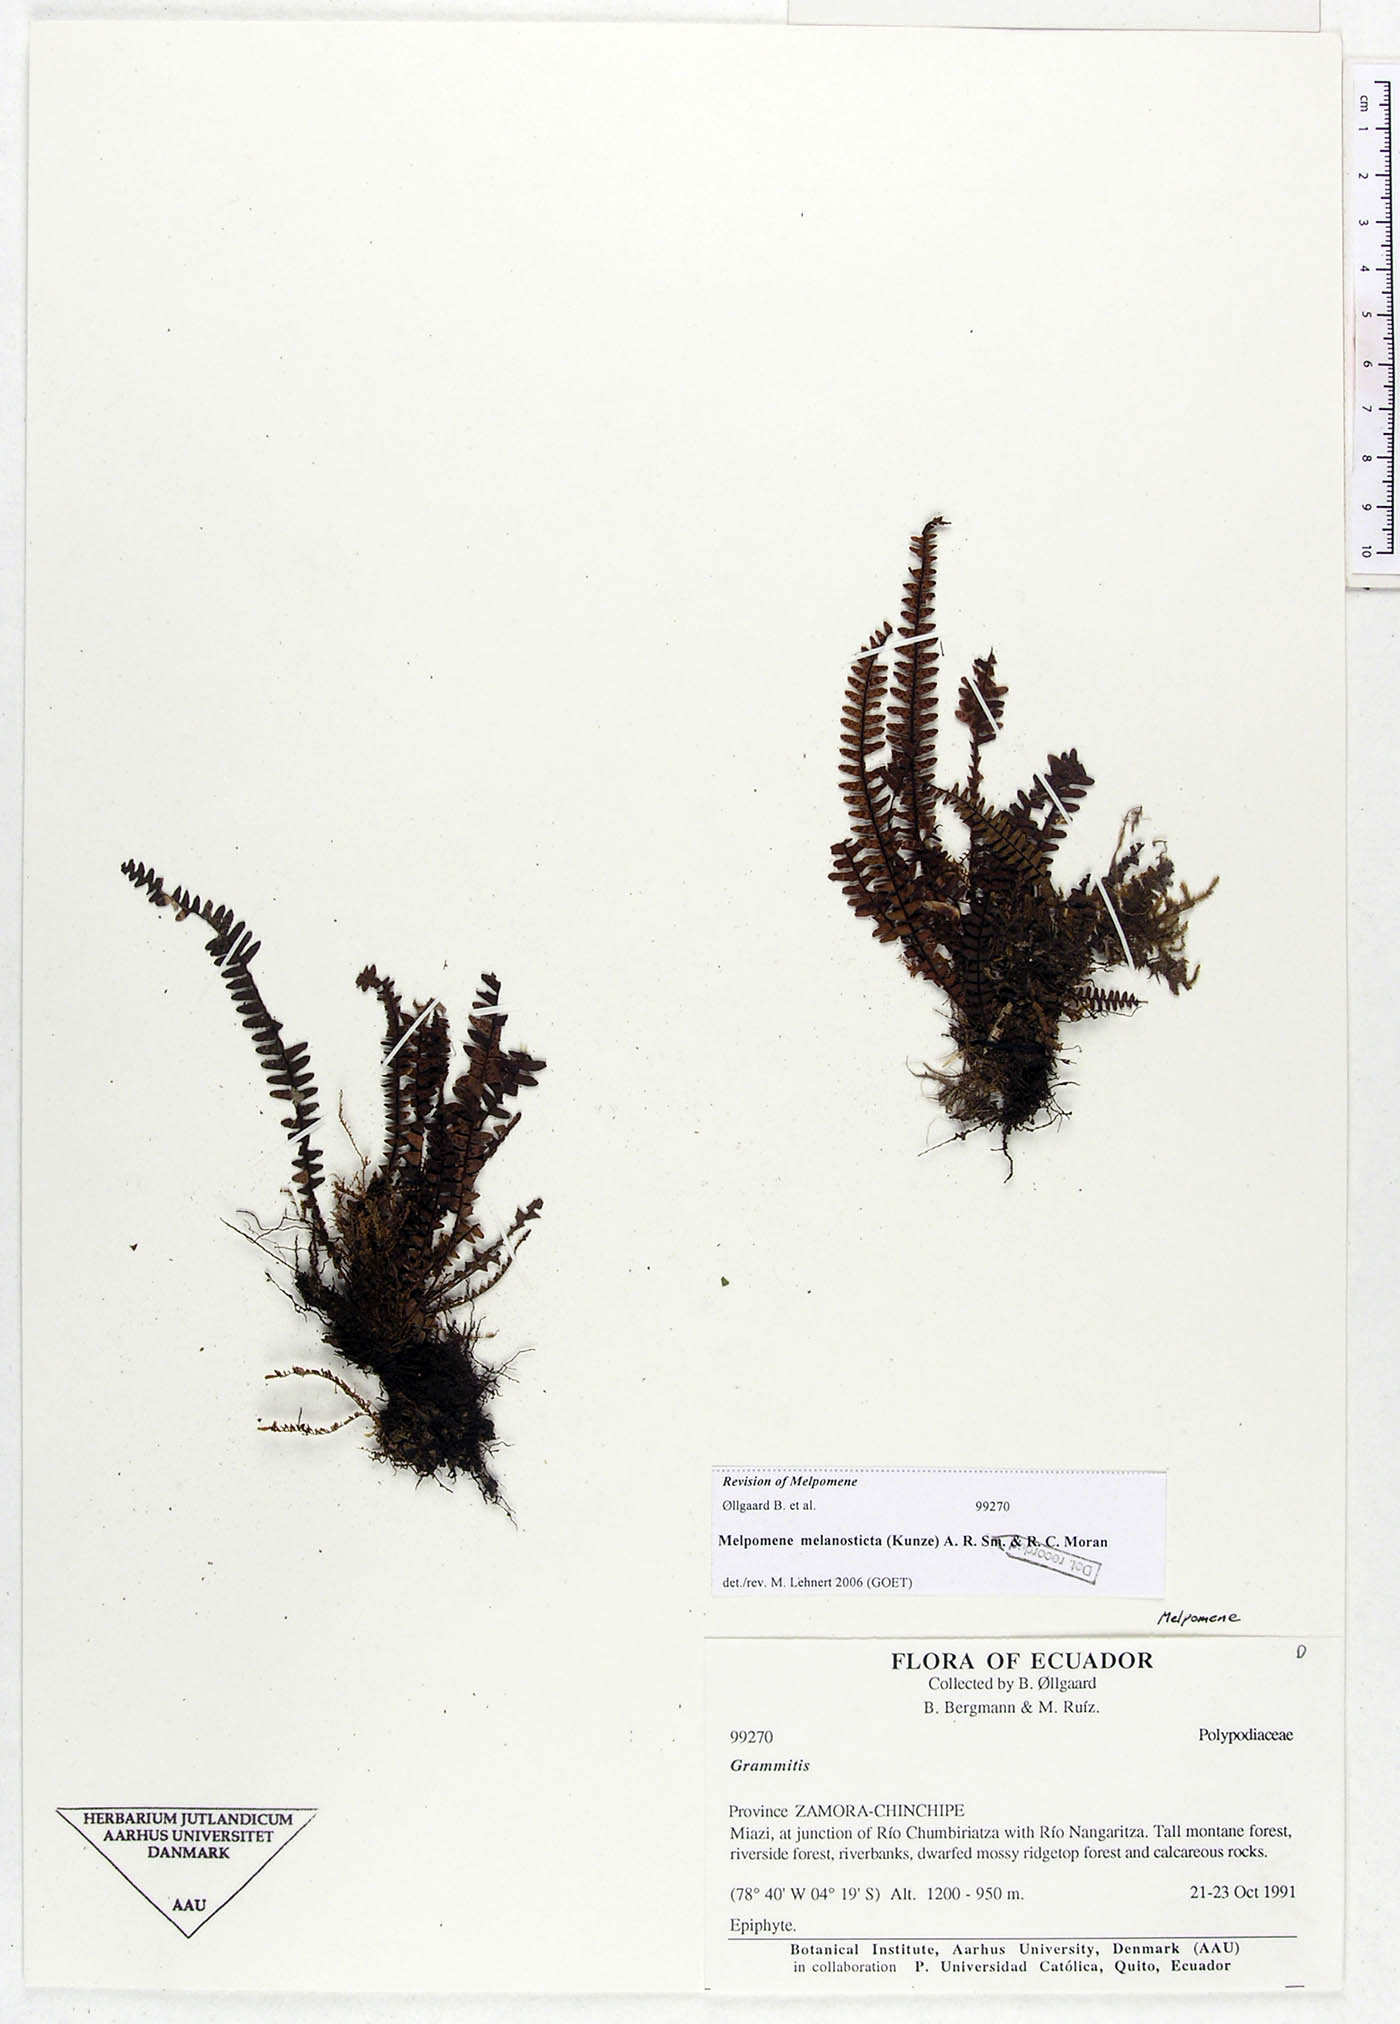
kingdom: Plantae
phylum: Tracheophyta
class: Polypodiopsida
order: Polypodiales
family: Polypodiaceae
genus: Melpomene
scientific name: Melpomene melanosticta
